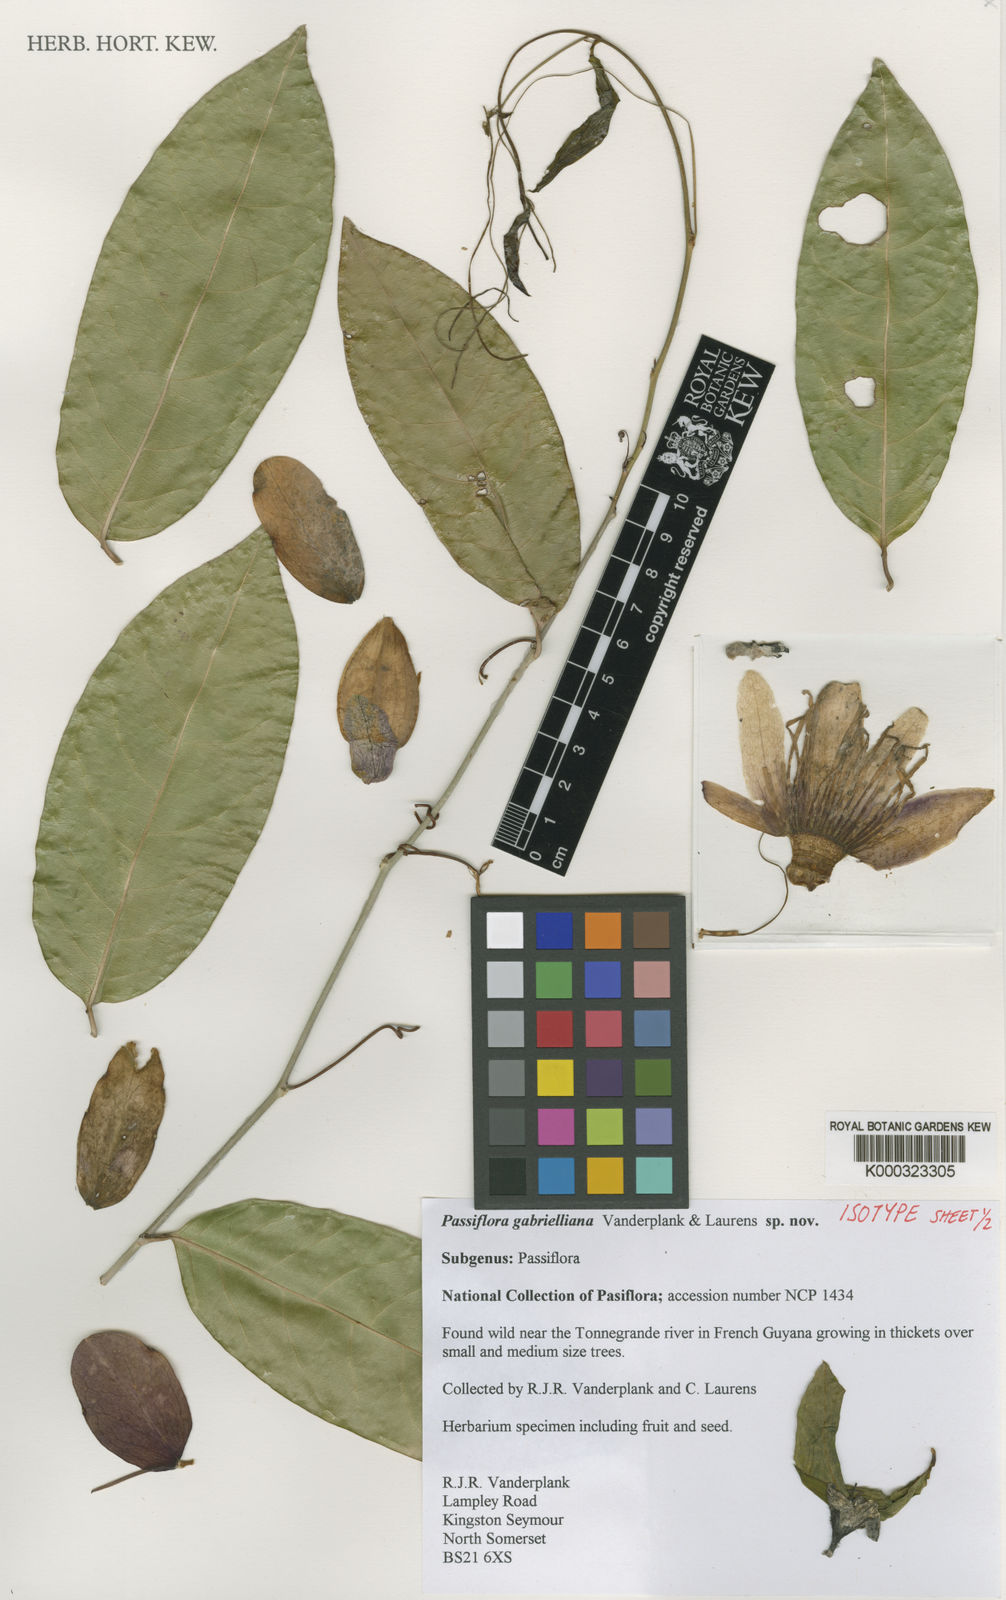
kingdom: Plantae
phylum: Tracheophyta
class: Magnoliopsida
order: Malpighiales
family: Passifloraceae
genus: Passiflora
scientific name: Passiflora
